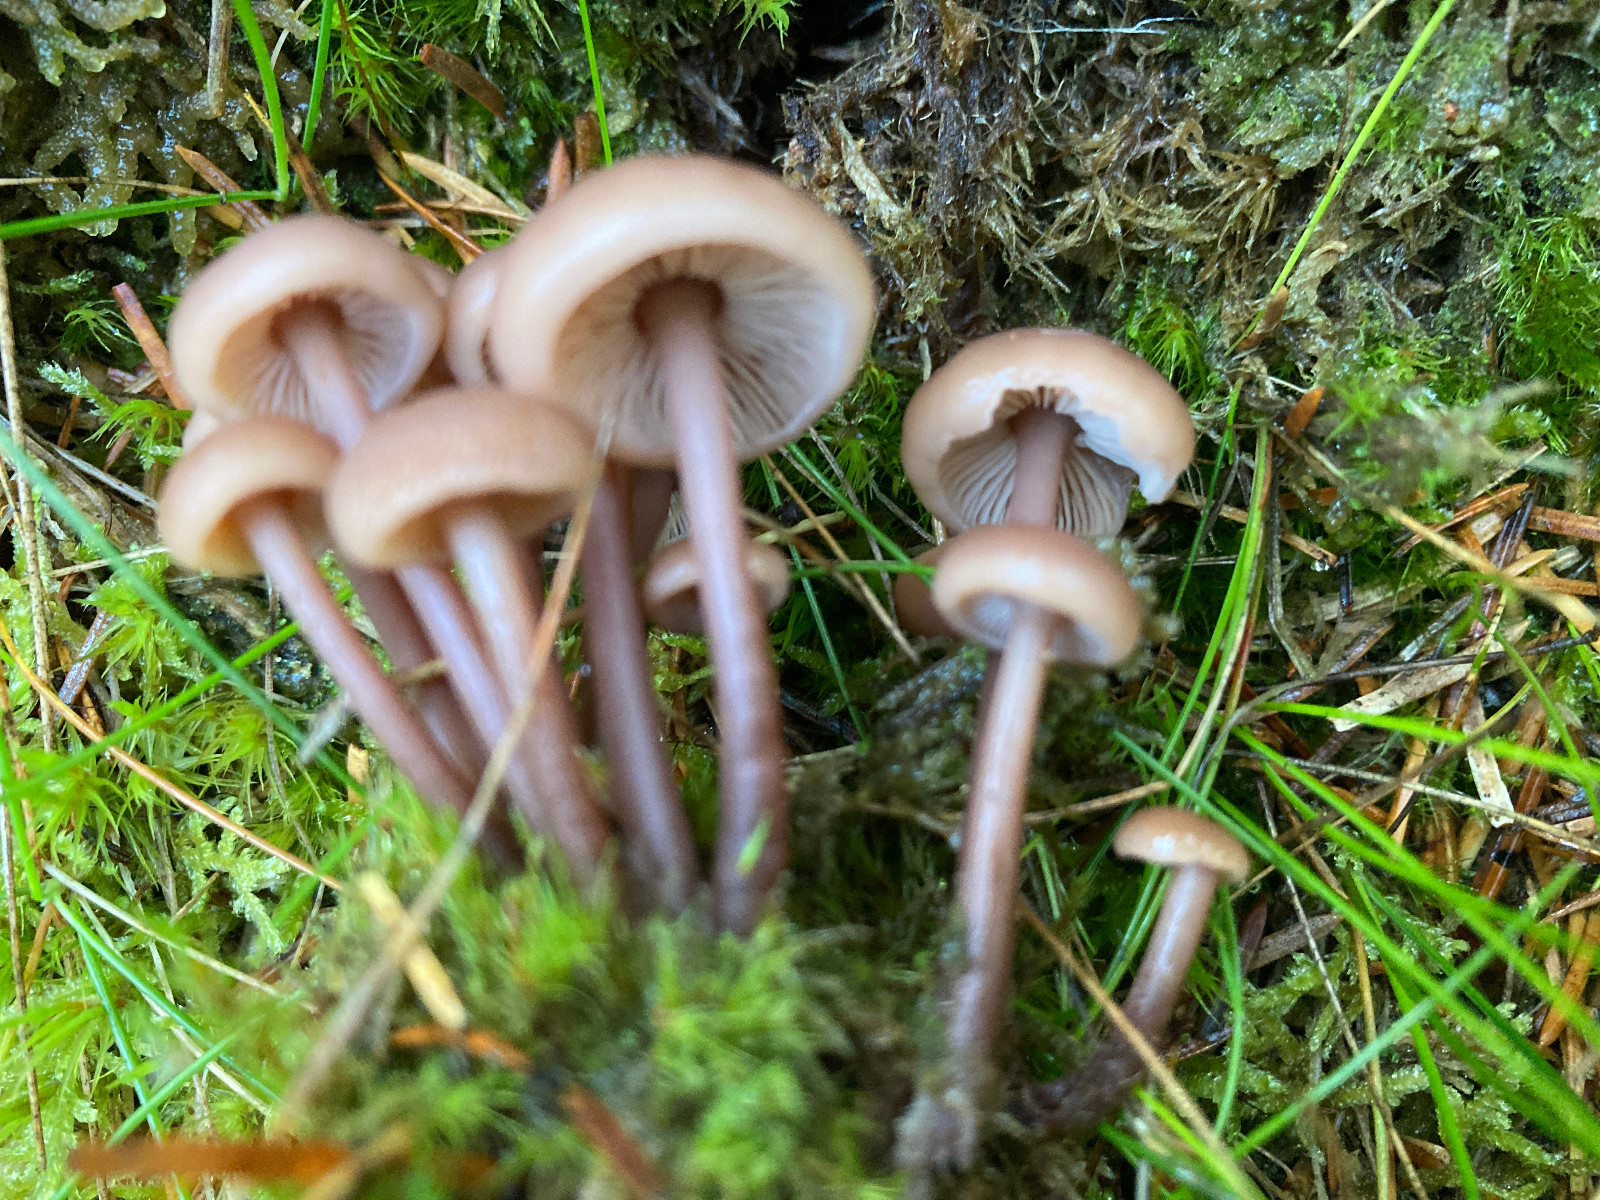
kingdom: Fungi
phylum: Basidiomycota
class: Agaricomycetes
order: Agaricales
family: Omphalotaceae
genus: Connopus
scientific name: Connopus acervatus
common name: tue-fladhat
